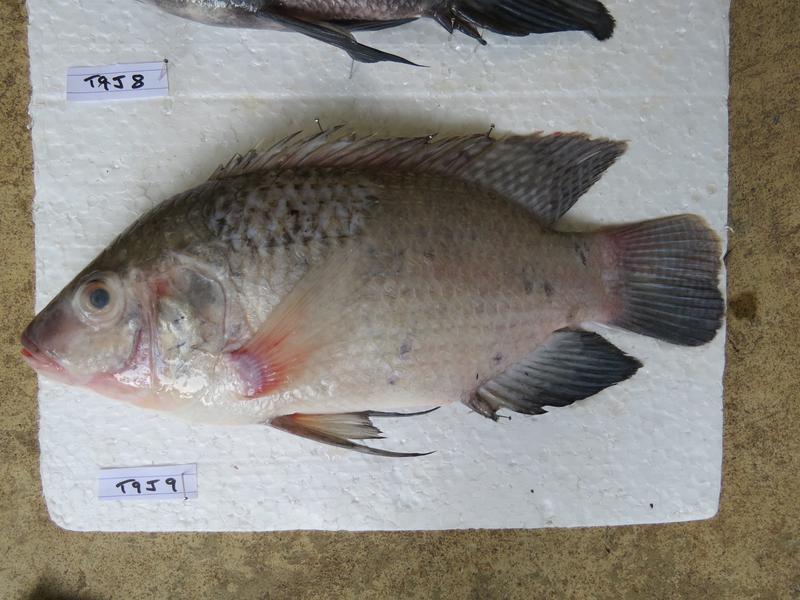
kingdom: Animalia
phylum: Chordata
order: Perciformes
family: Cichlidae
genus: Oreochromis
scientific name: Oreochromis urolepis
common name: Wami tilapia
